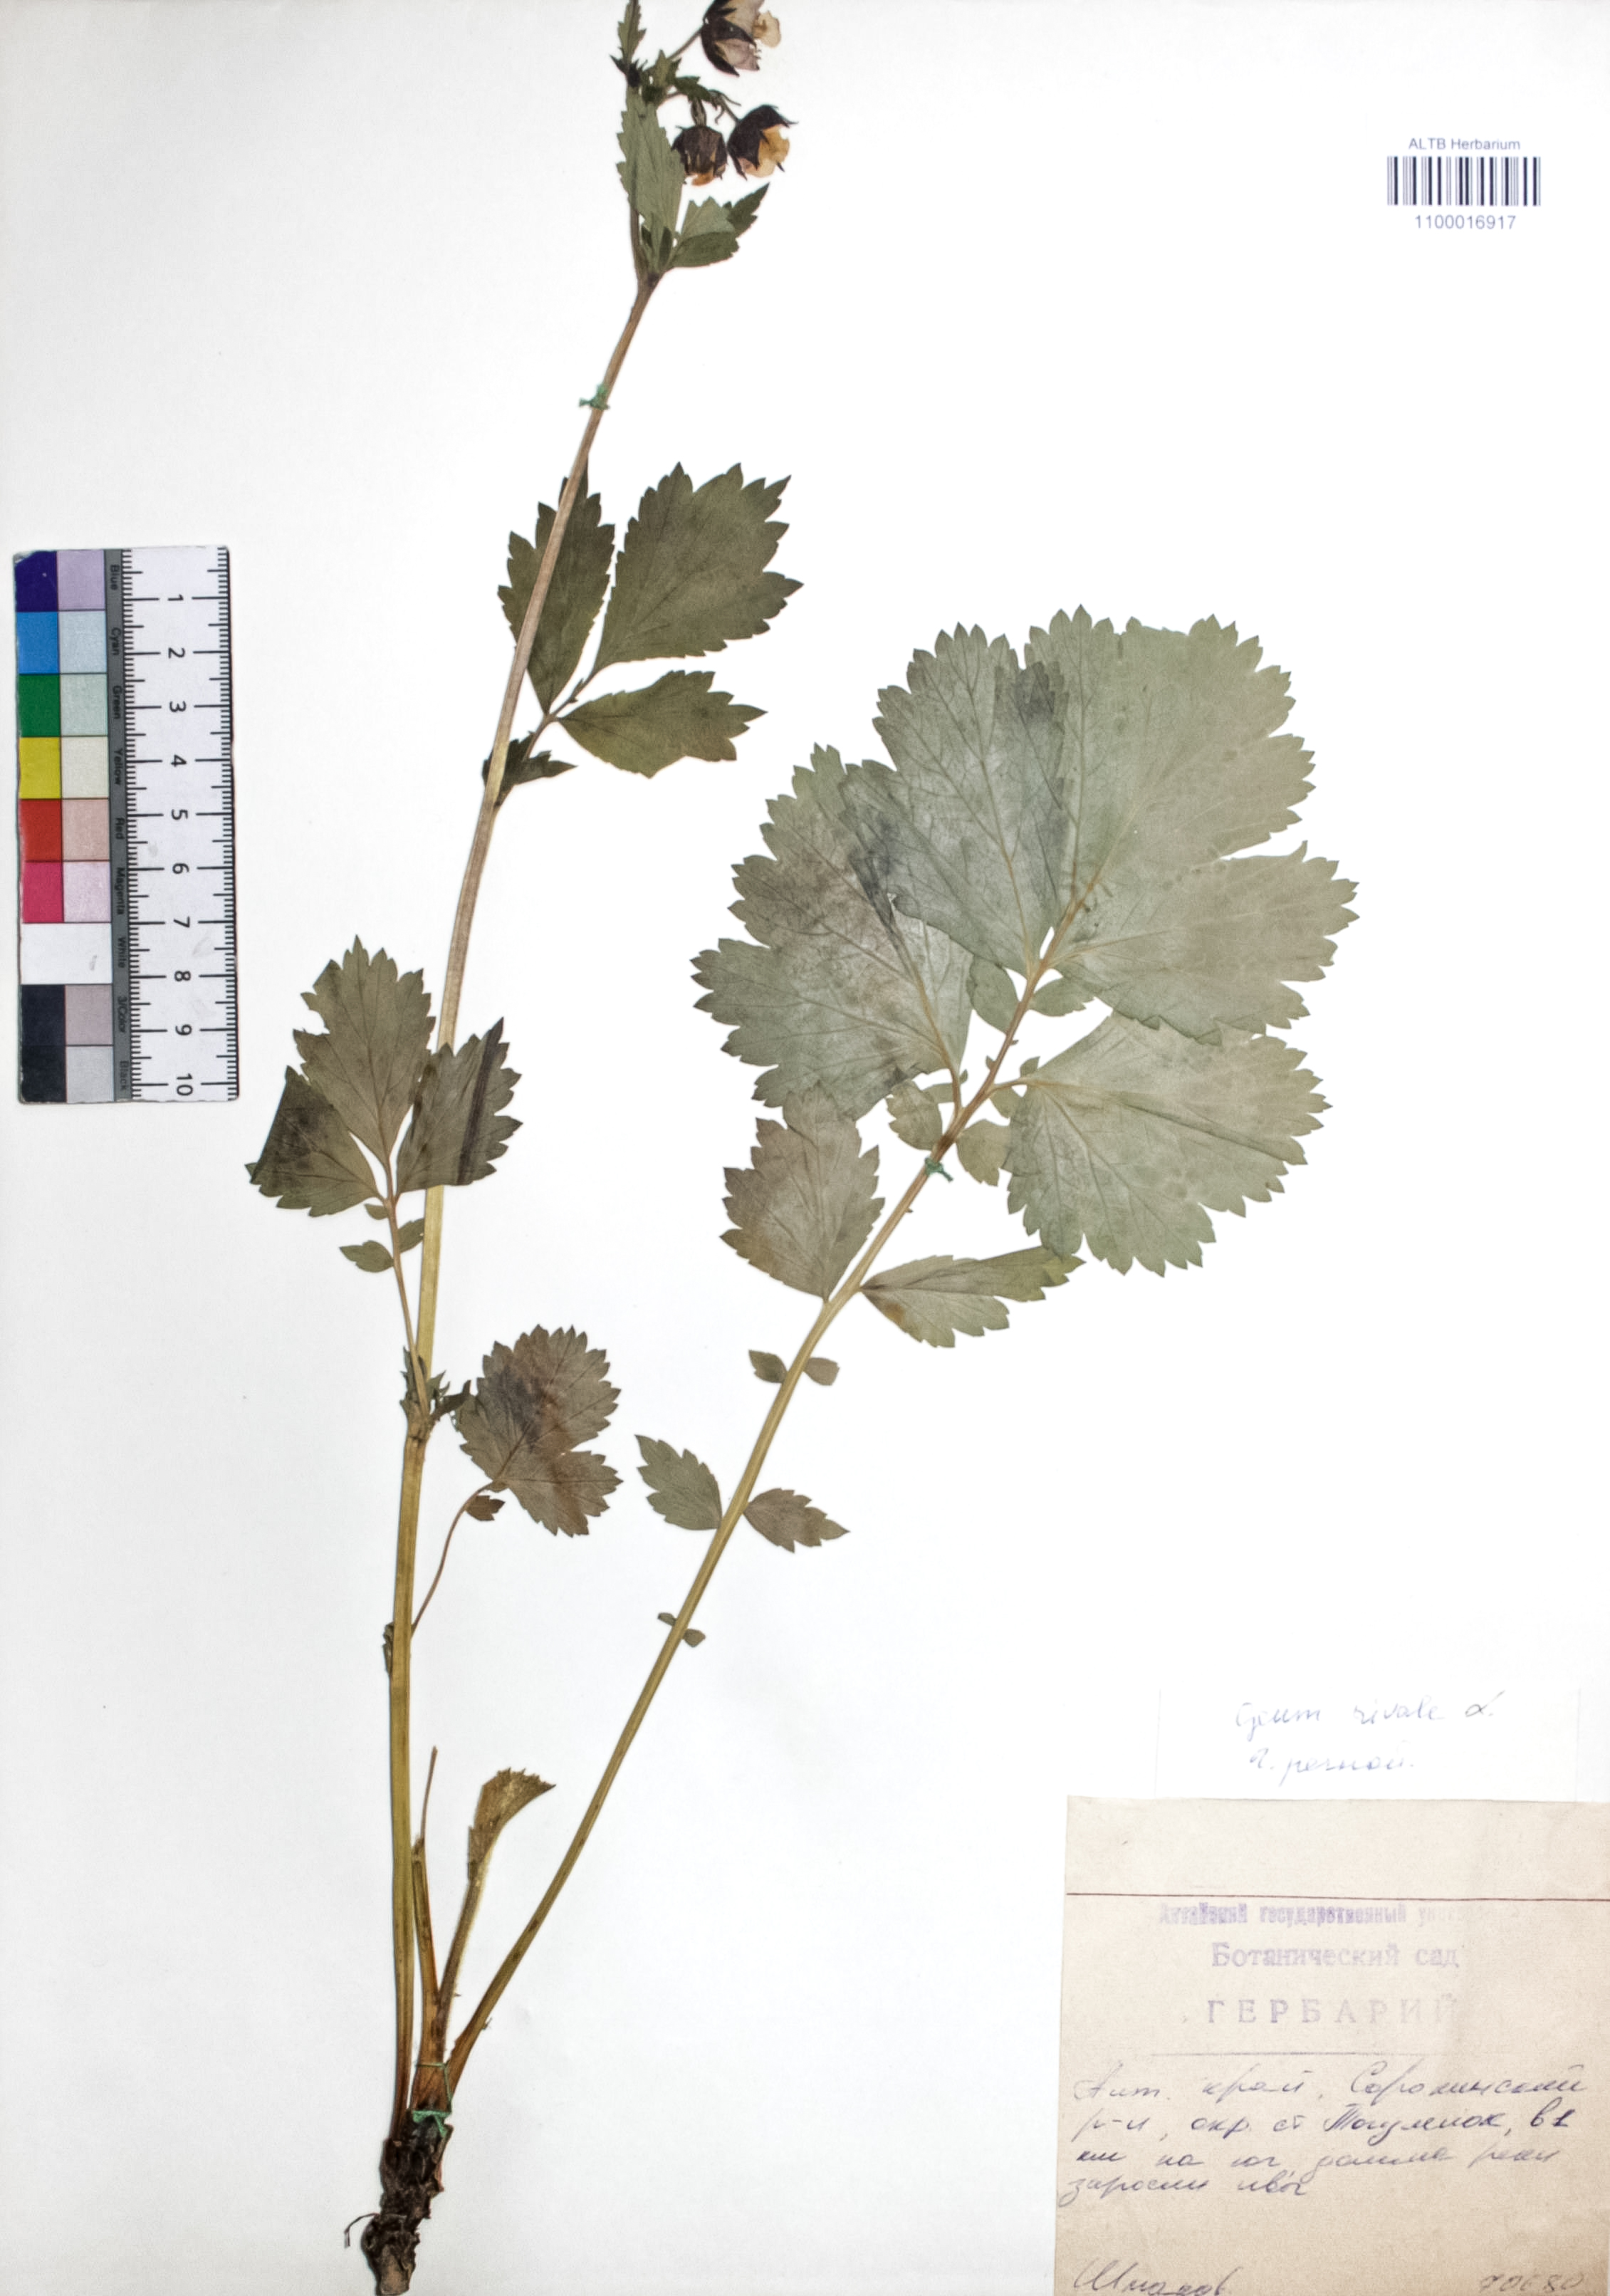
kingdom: Plantae
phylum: Tracheophyta
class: Magnoliopsida
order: Rosales
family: Rosaceae
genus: Geum
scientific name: Geum rivale
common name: Water avens
